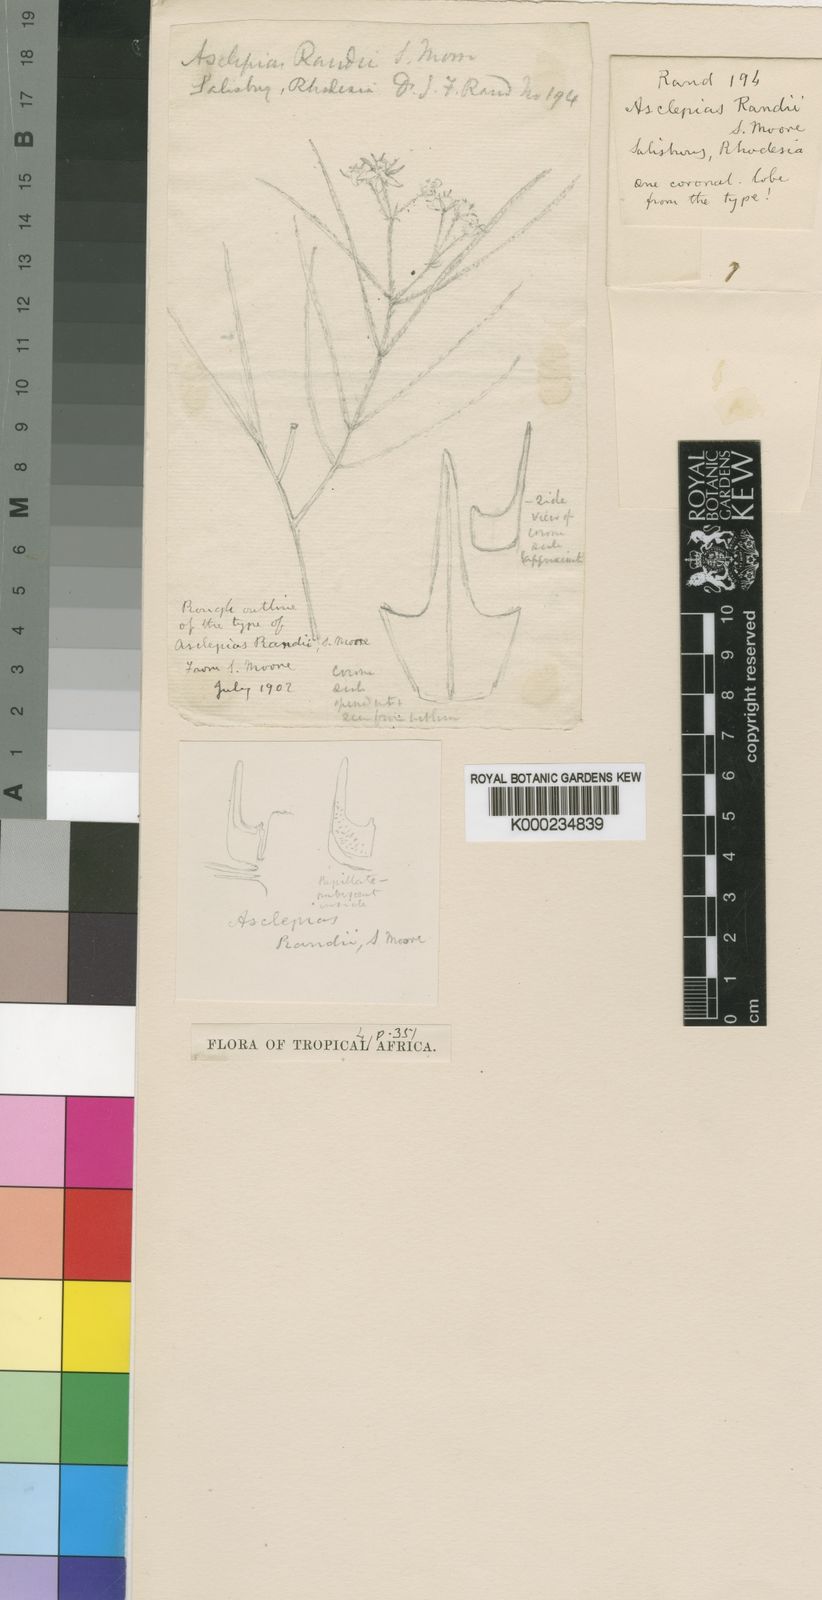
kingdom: Plantae
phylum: Tracheophyta
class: Magnoliopsida
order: Gentianales
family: Apocynaceae
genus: Asclepias
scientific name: Asclepias randii
